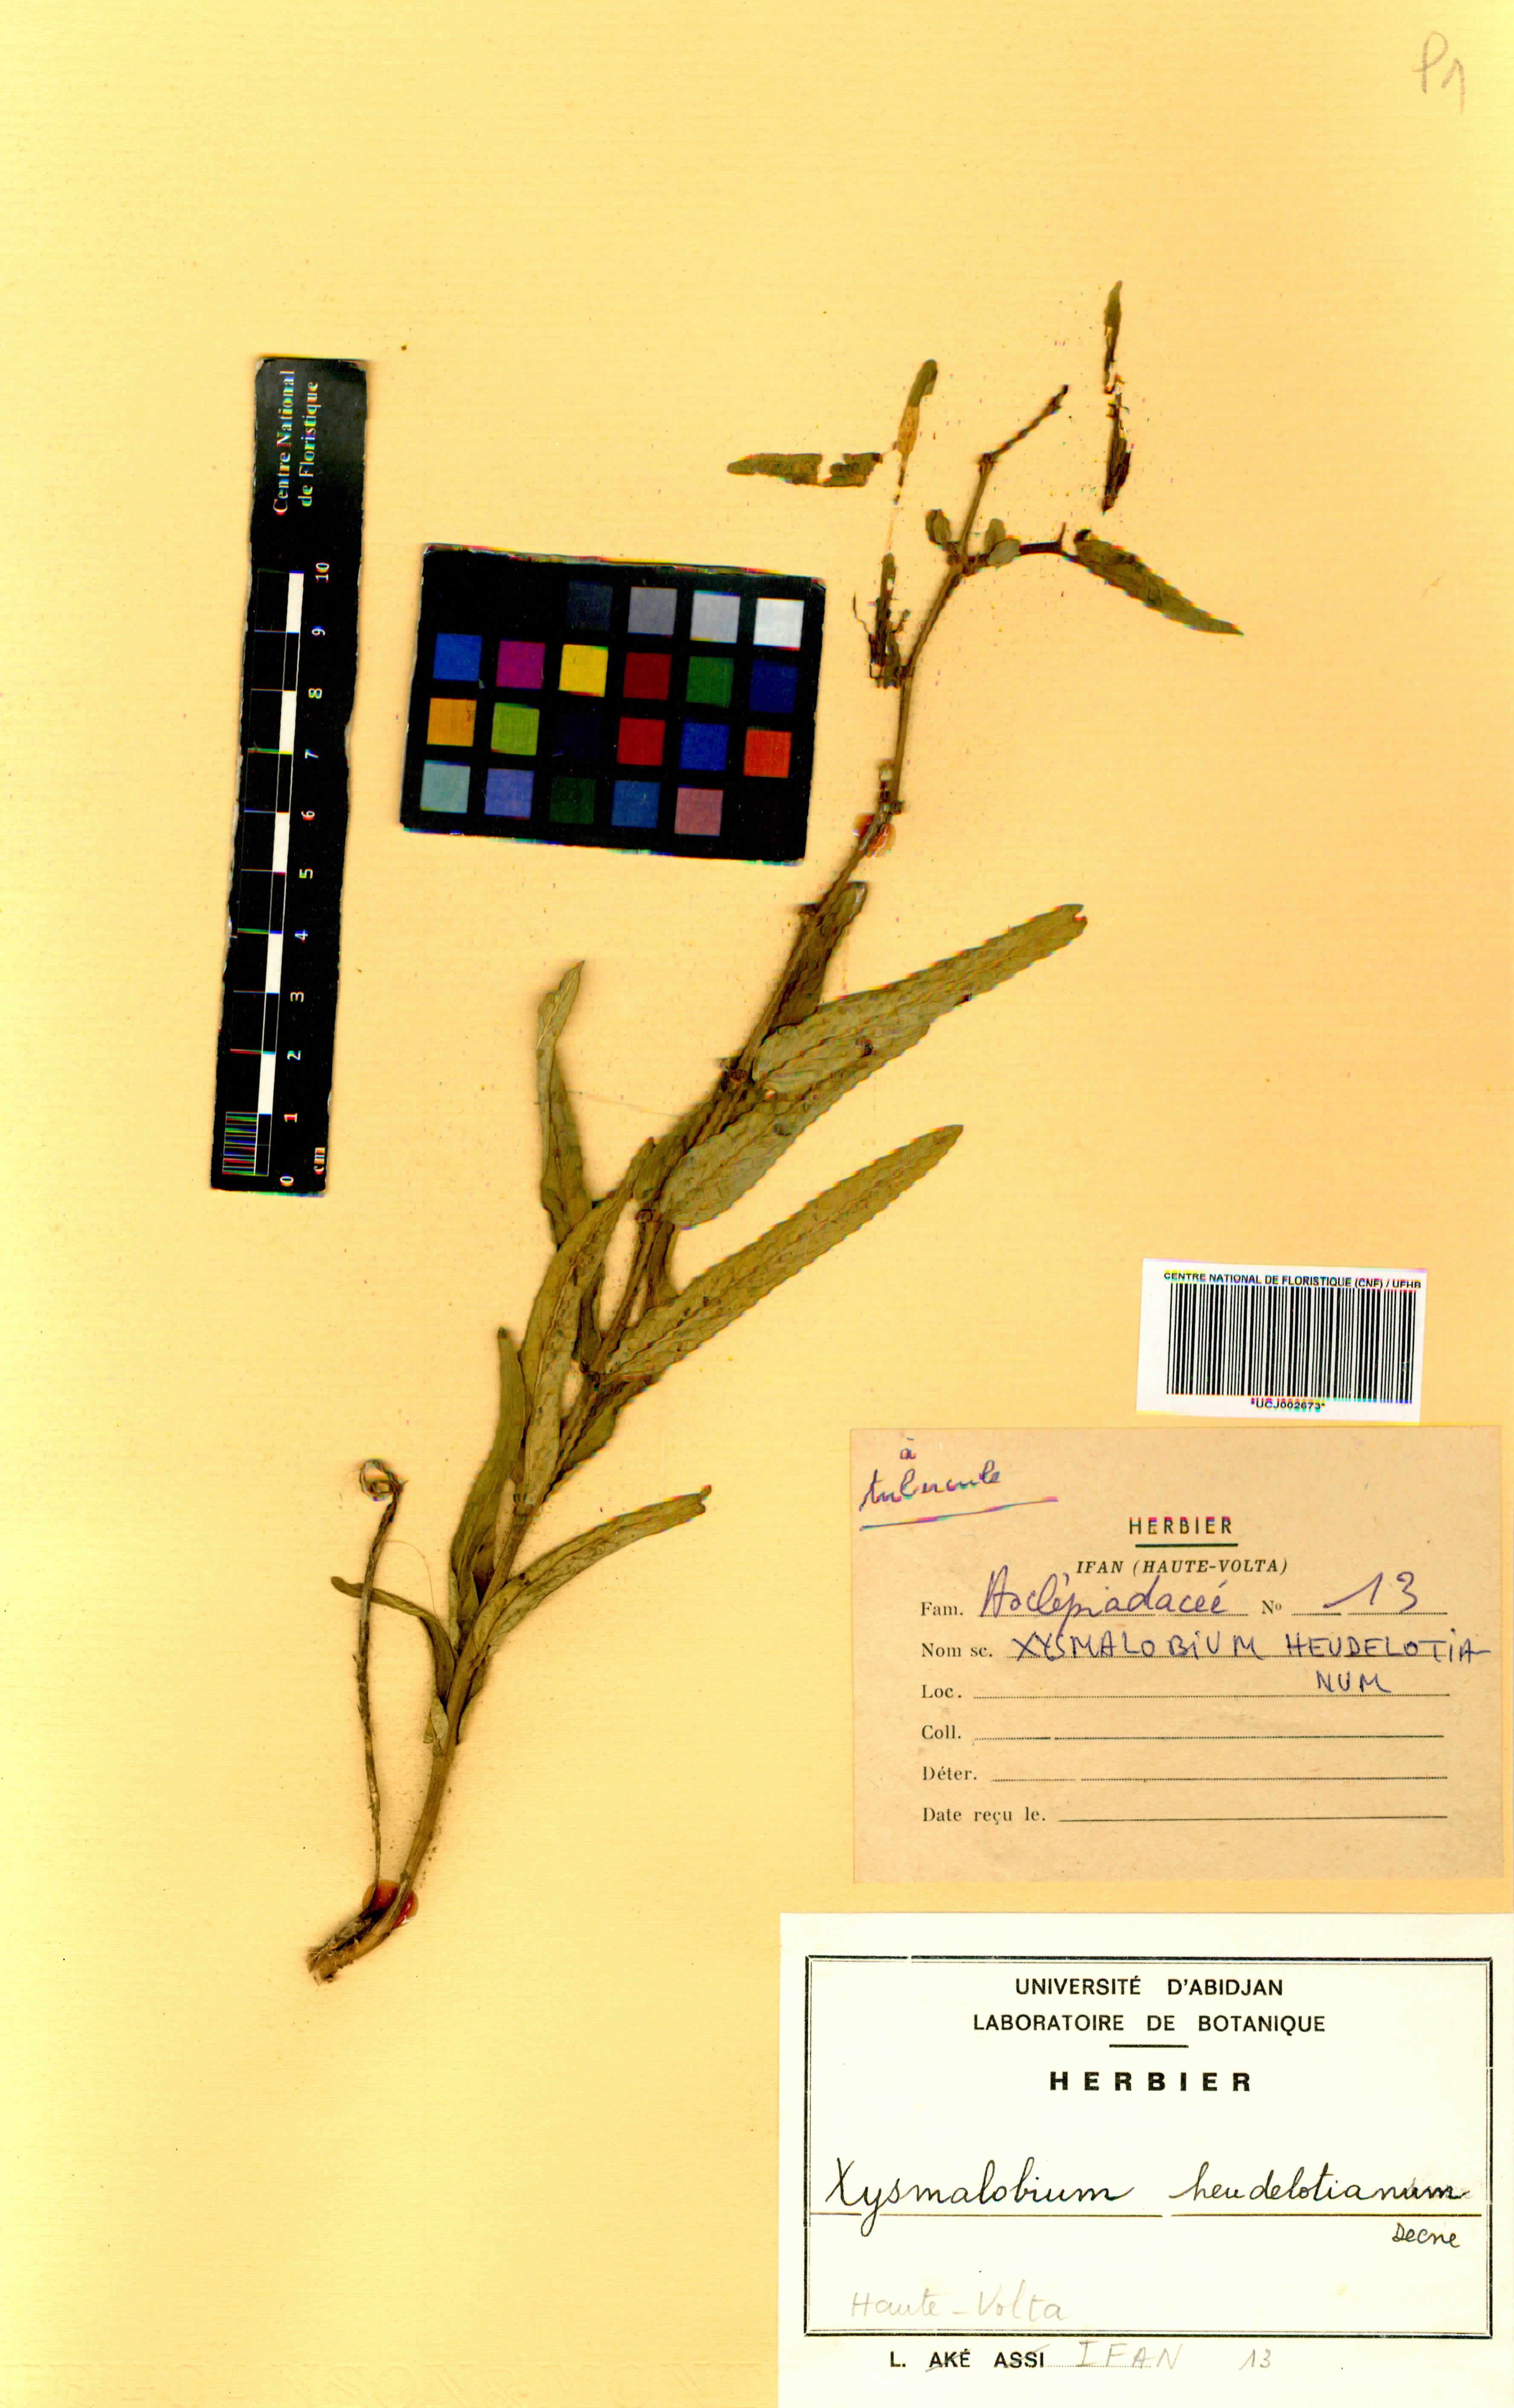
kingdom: Plantae
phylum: Tracheophyta
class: Magnoliopsida
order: Gentianales
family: Apocynaceae
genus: Xysmalobium
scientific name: Xysmalobium heudelotianum
